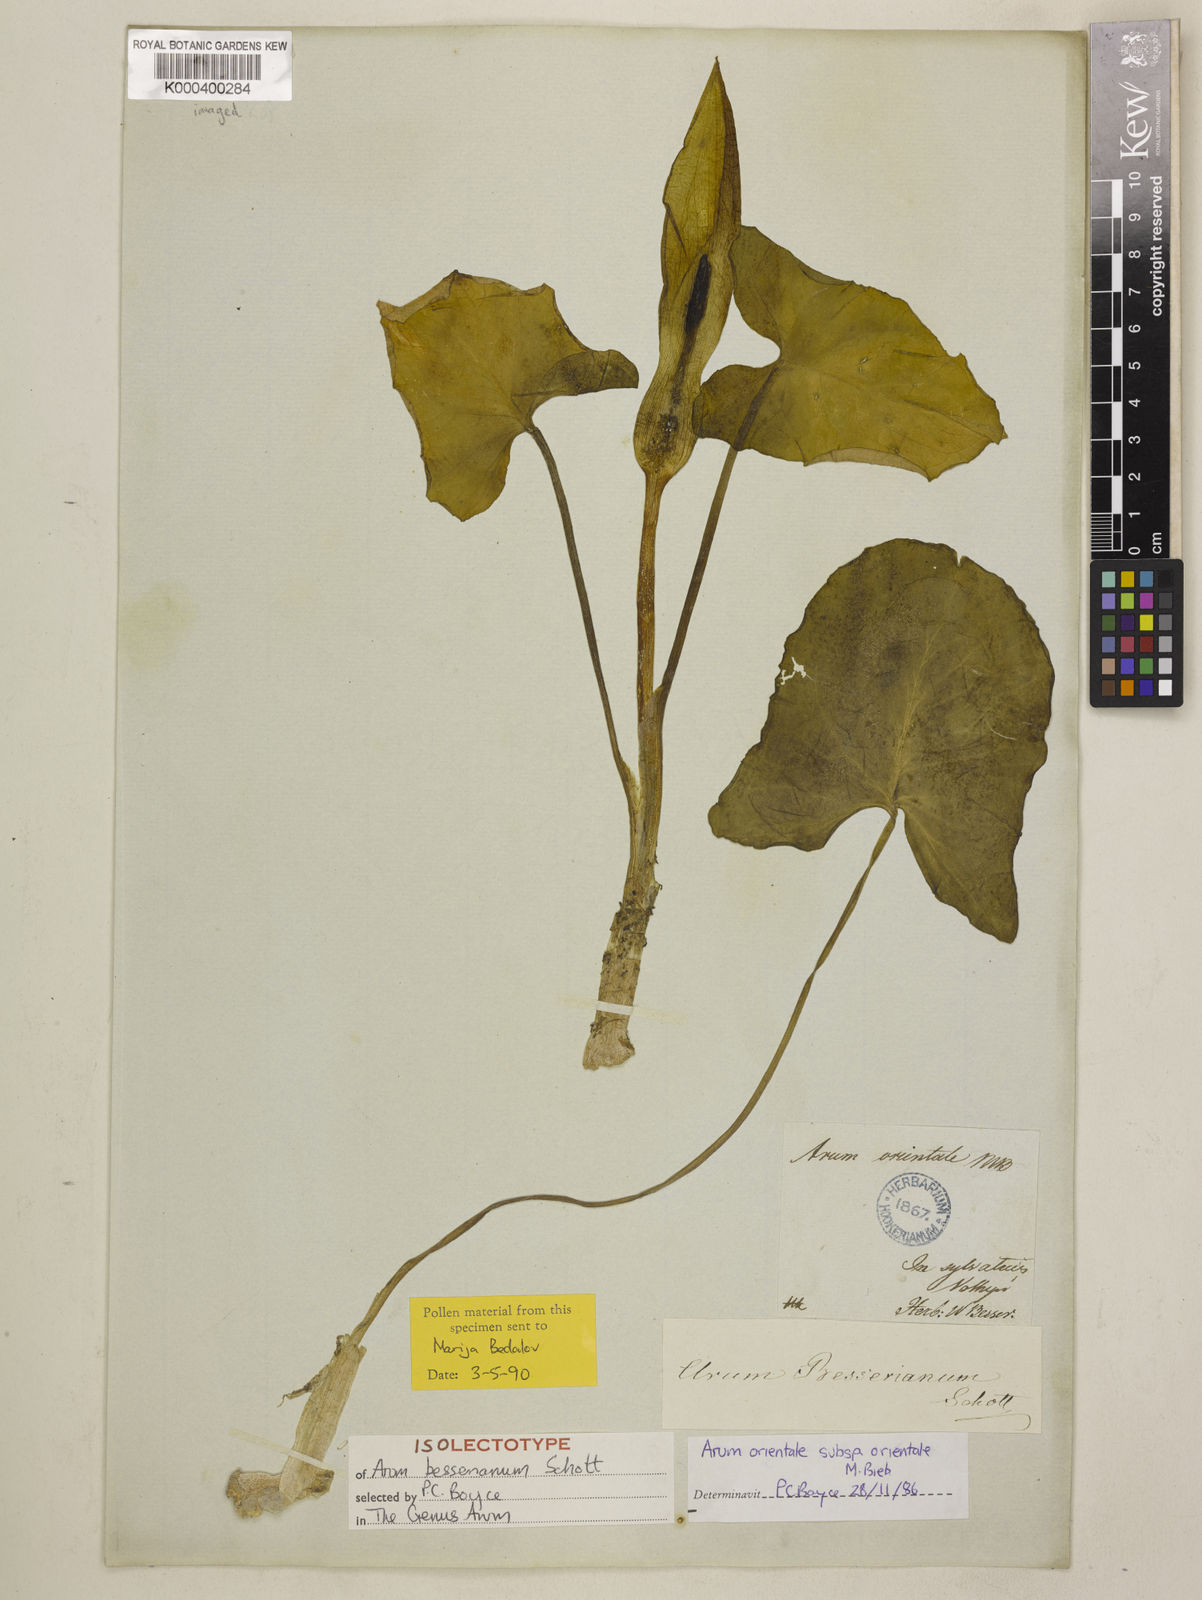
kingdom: Plantae
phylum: Tracheophyta
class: Liliopsida
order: Alismatales
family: Araceae
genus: Arum
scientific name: Arum besserianum
